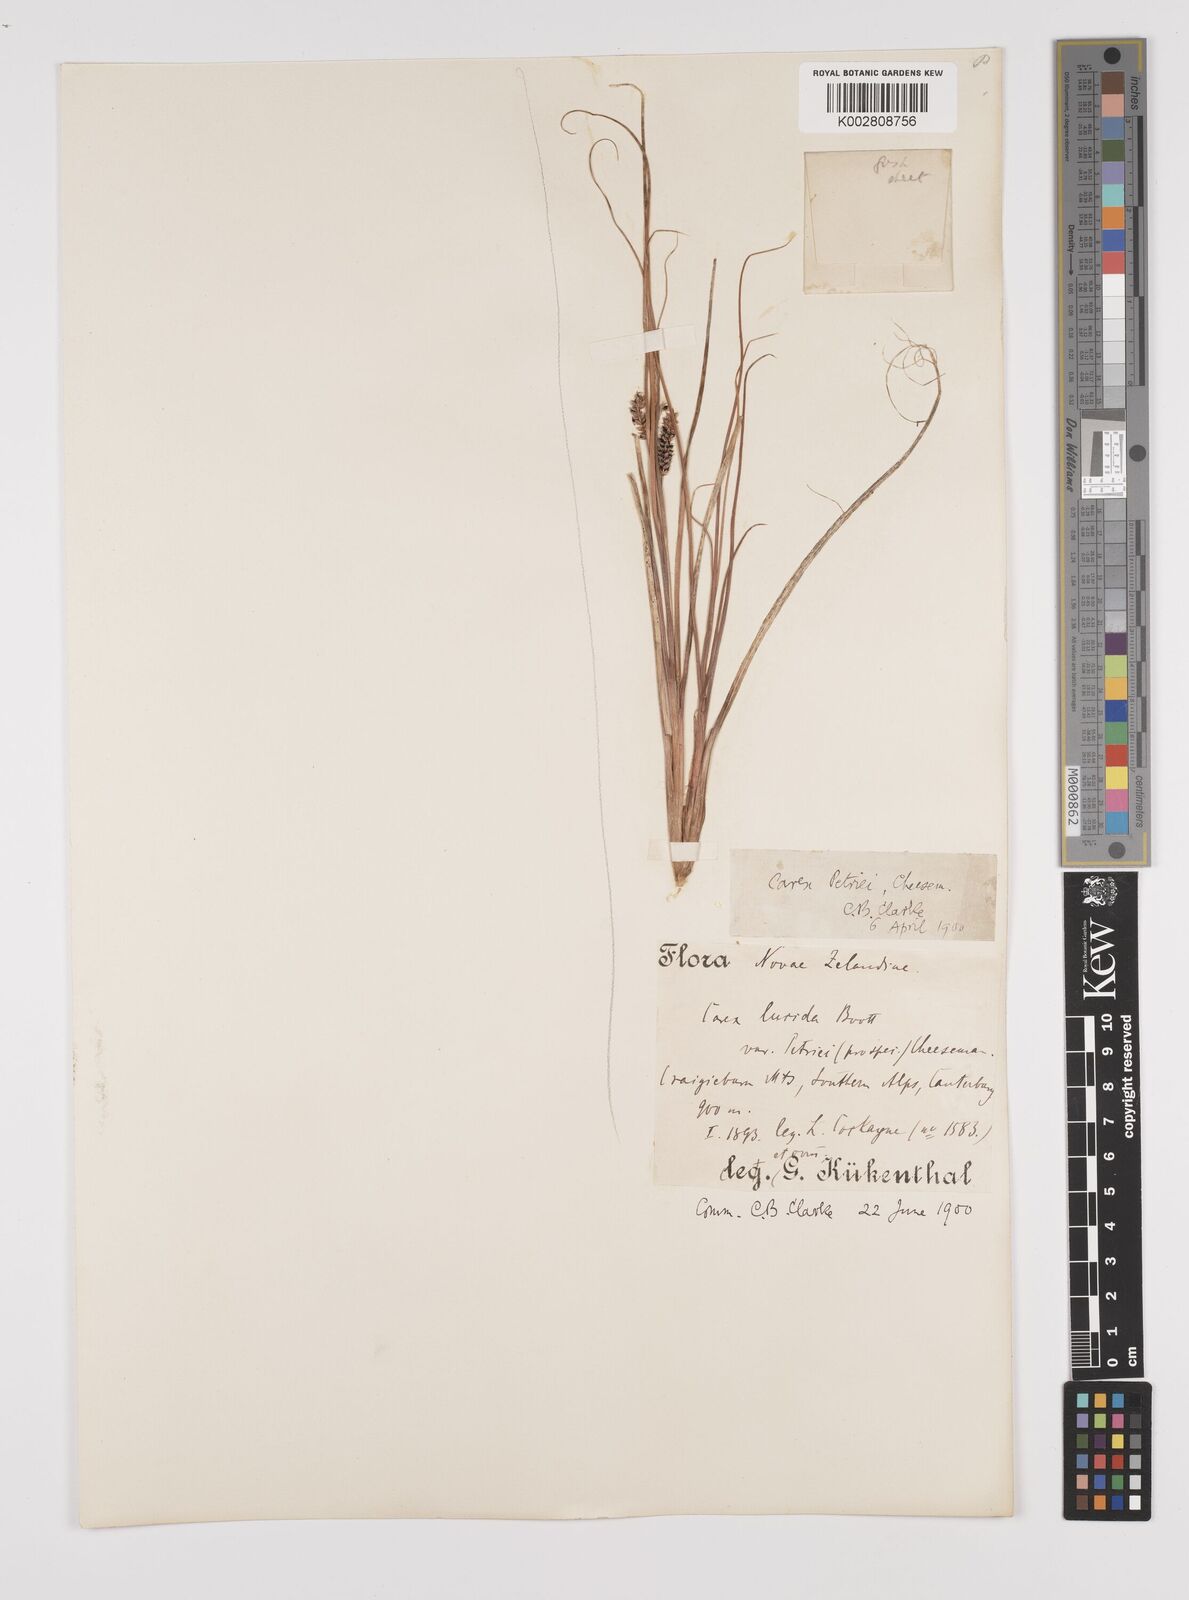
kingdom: Plantae
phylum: Tracheophyta
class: Liliopsida
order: Poales
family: Cyperaceae
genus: Carex
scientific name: Carex petriei
